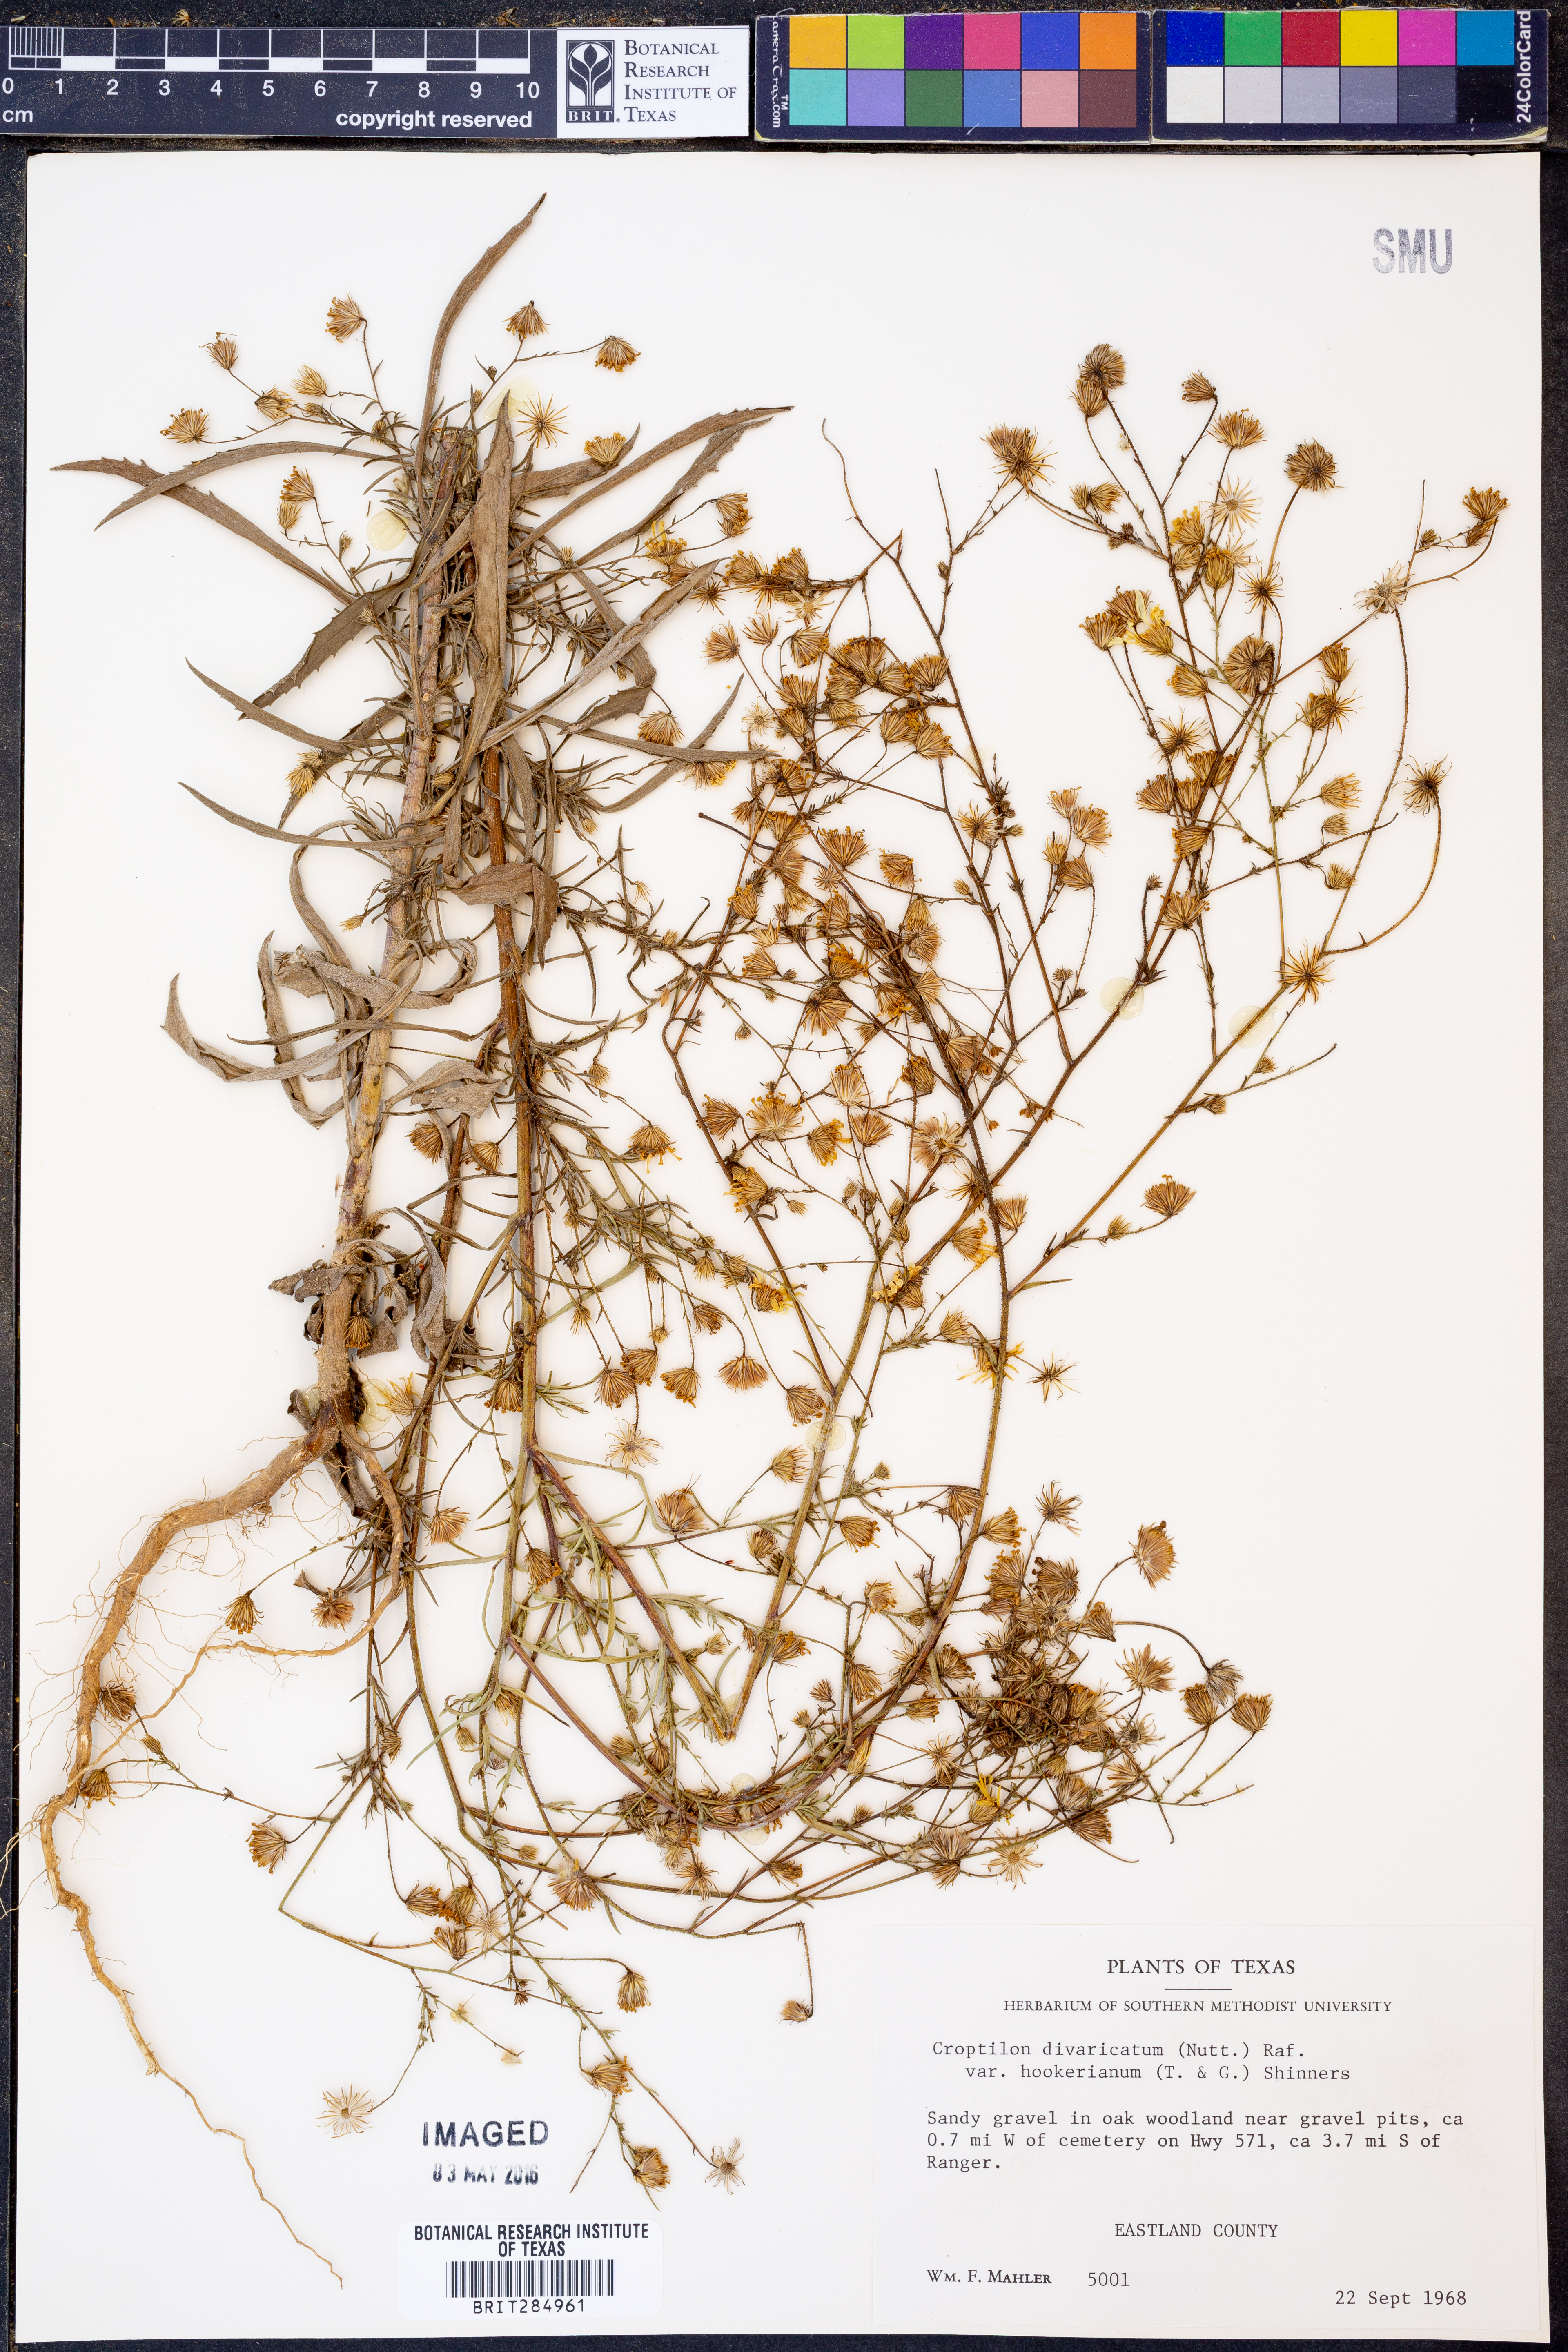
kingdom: Plantae
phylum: Tracheophyta
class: Magnoliopsida
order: Asterales
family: Asteraceae
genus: Croptilon
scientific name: Croptilon hookerianum
